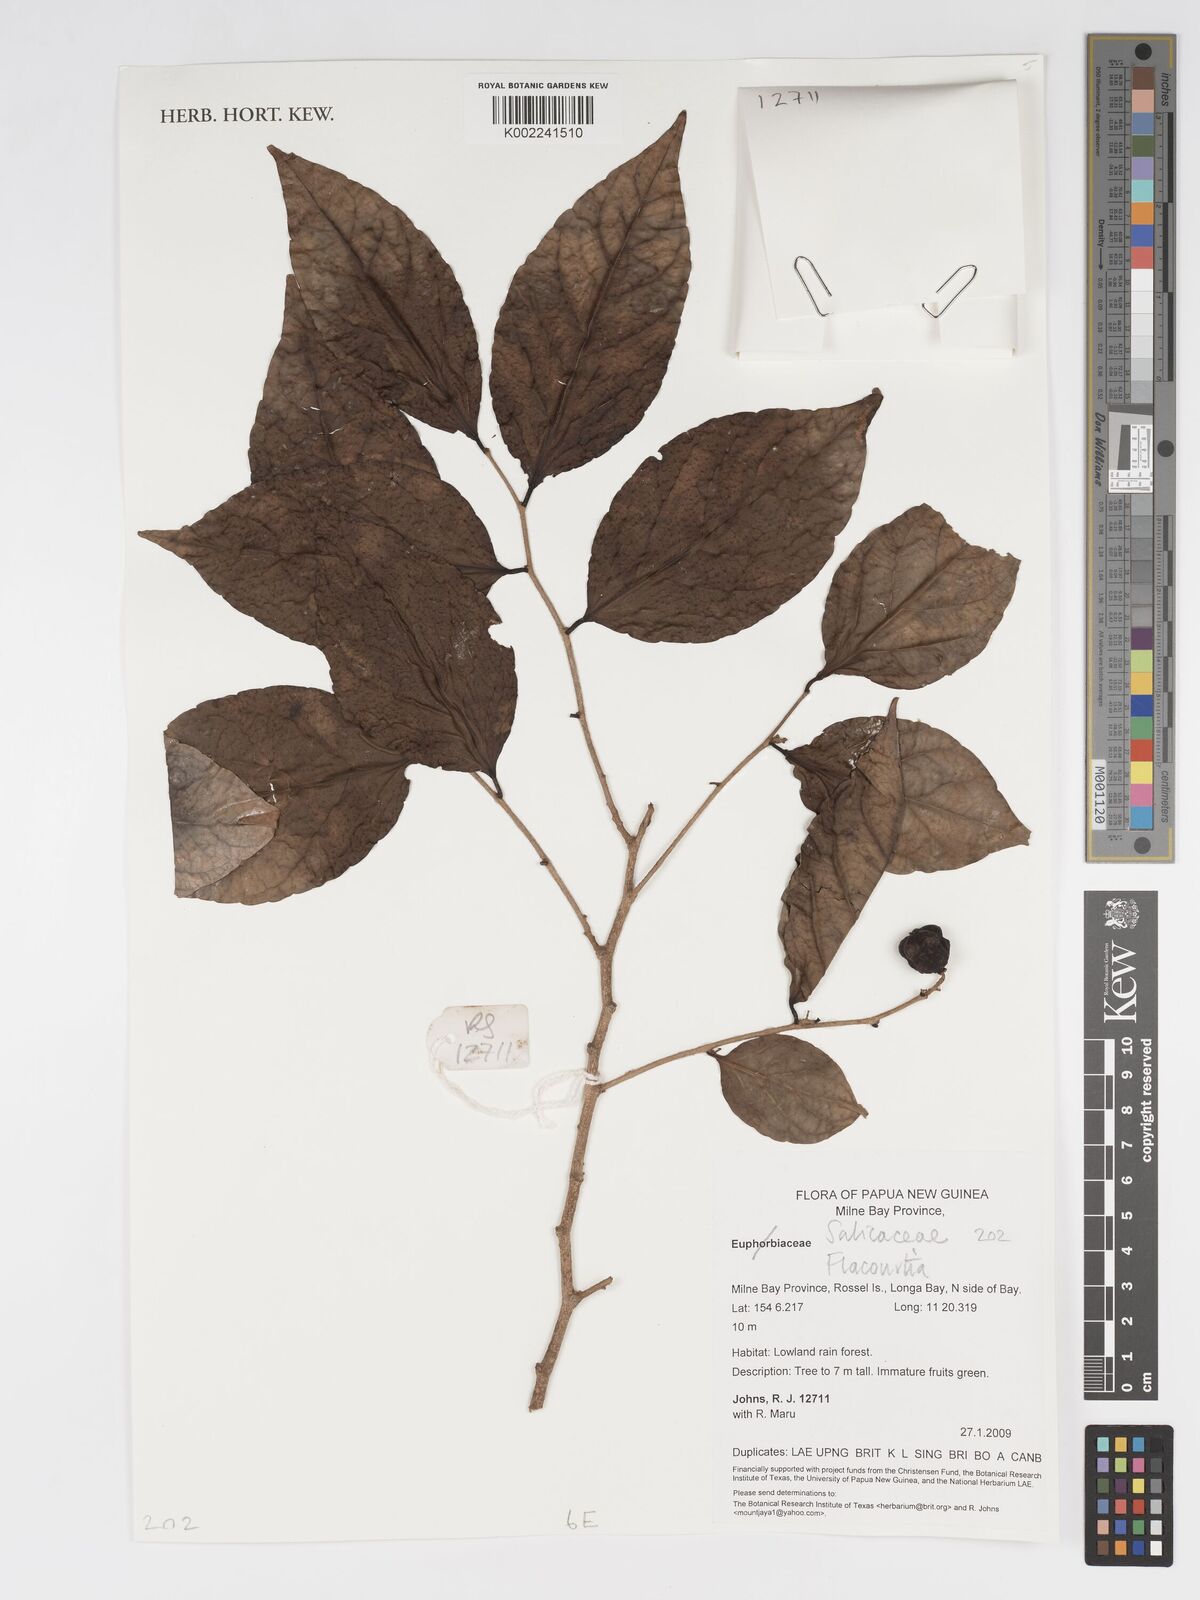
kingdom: Plantae
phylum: Tracheophyta
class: Magnoliopsida
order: Malpighiales
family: Salicaceae
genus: Flacourtia
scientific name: Flacourtia
